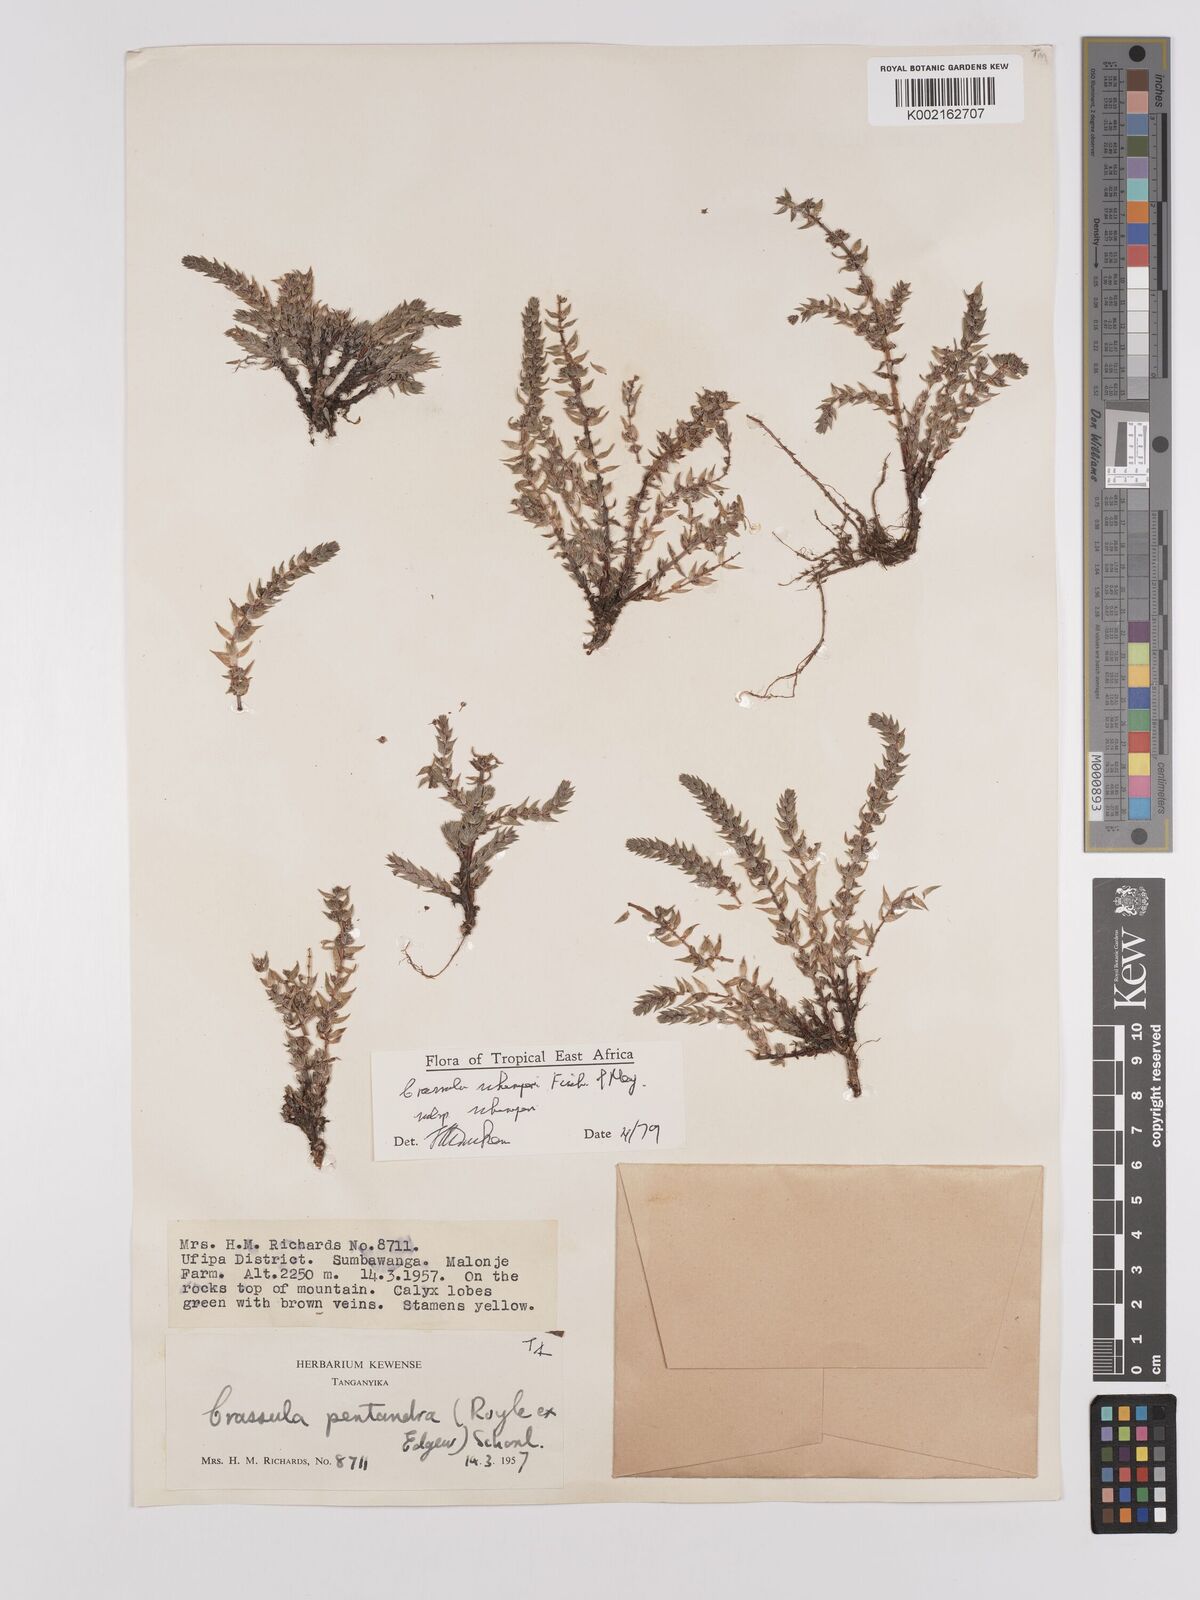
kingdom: Plantae
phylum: Tracheophyta
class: Magnoliopsida
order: Saxifragales
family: Crassulaceae
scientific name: Crassulaceae
